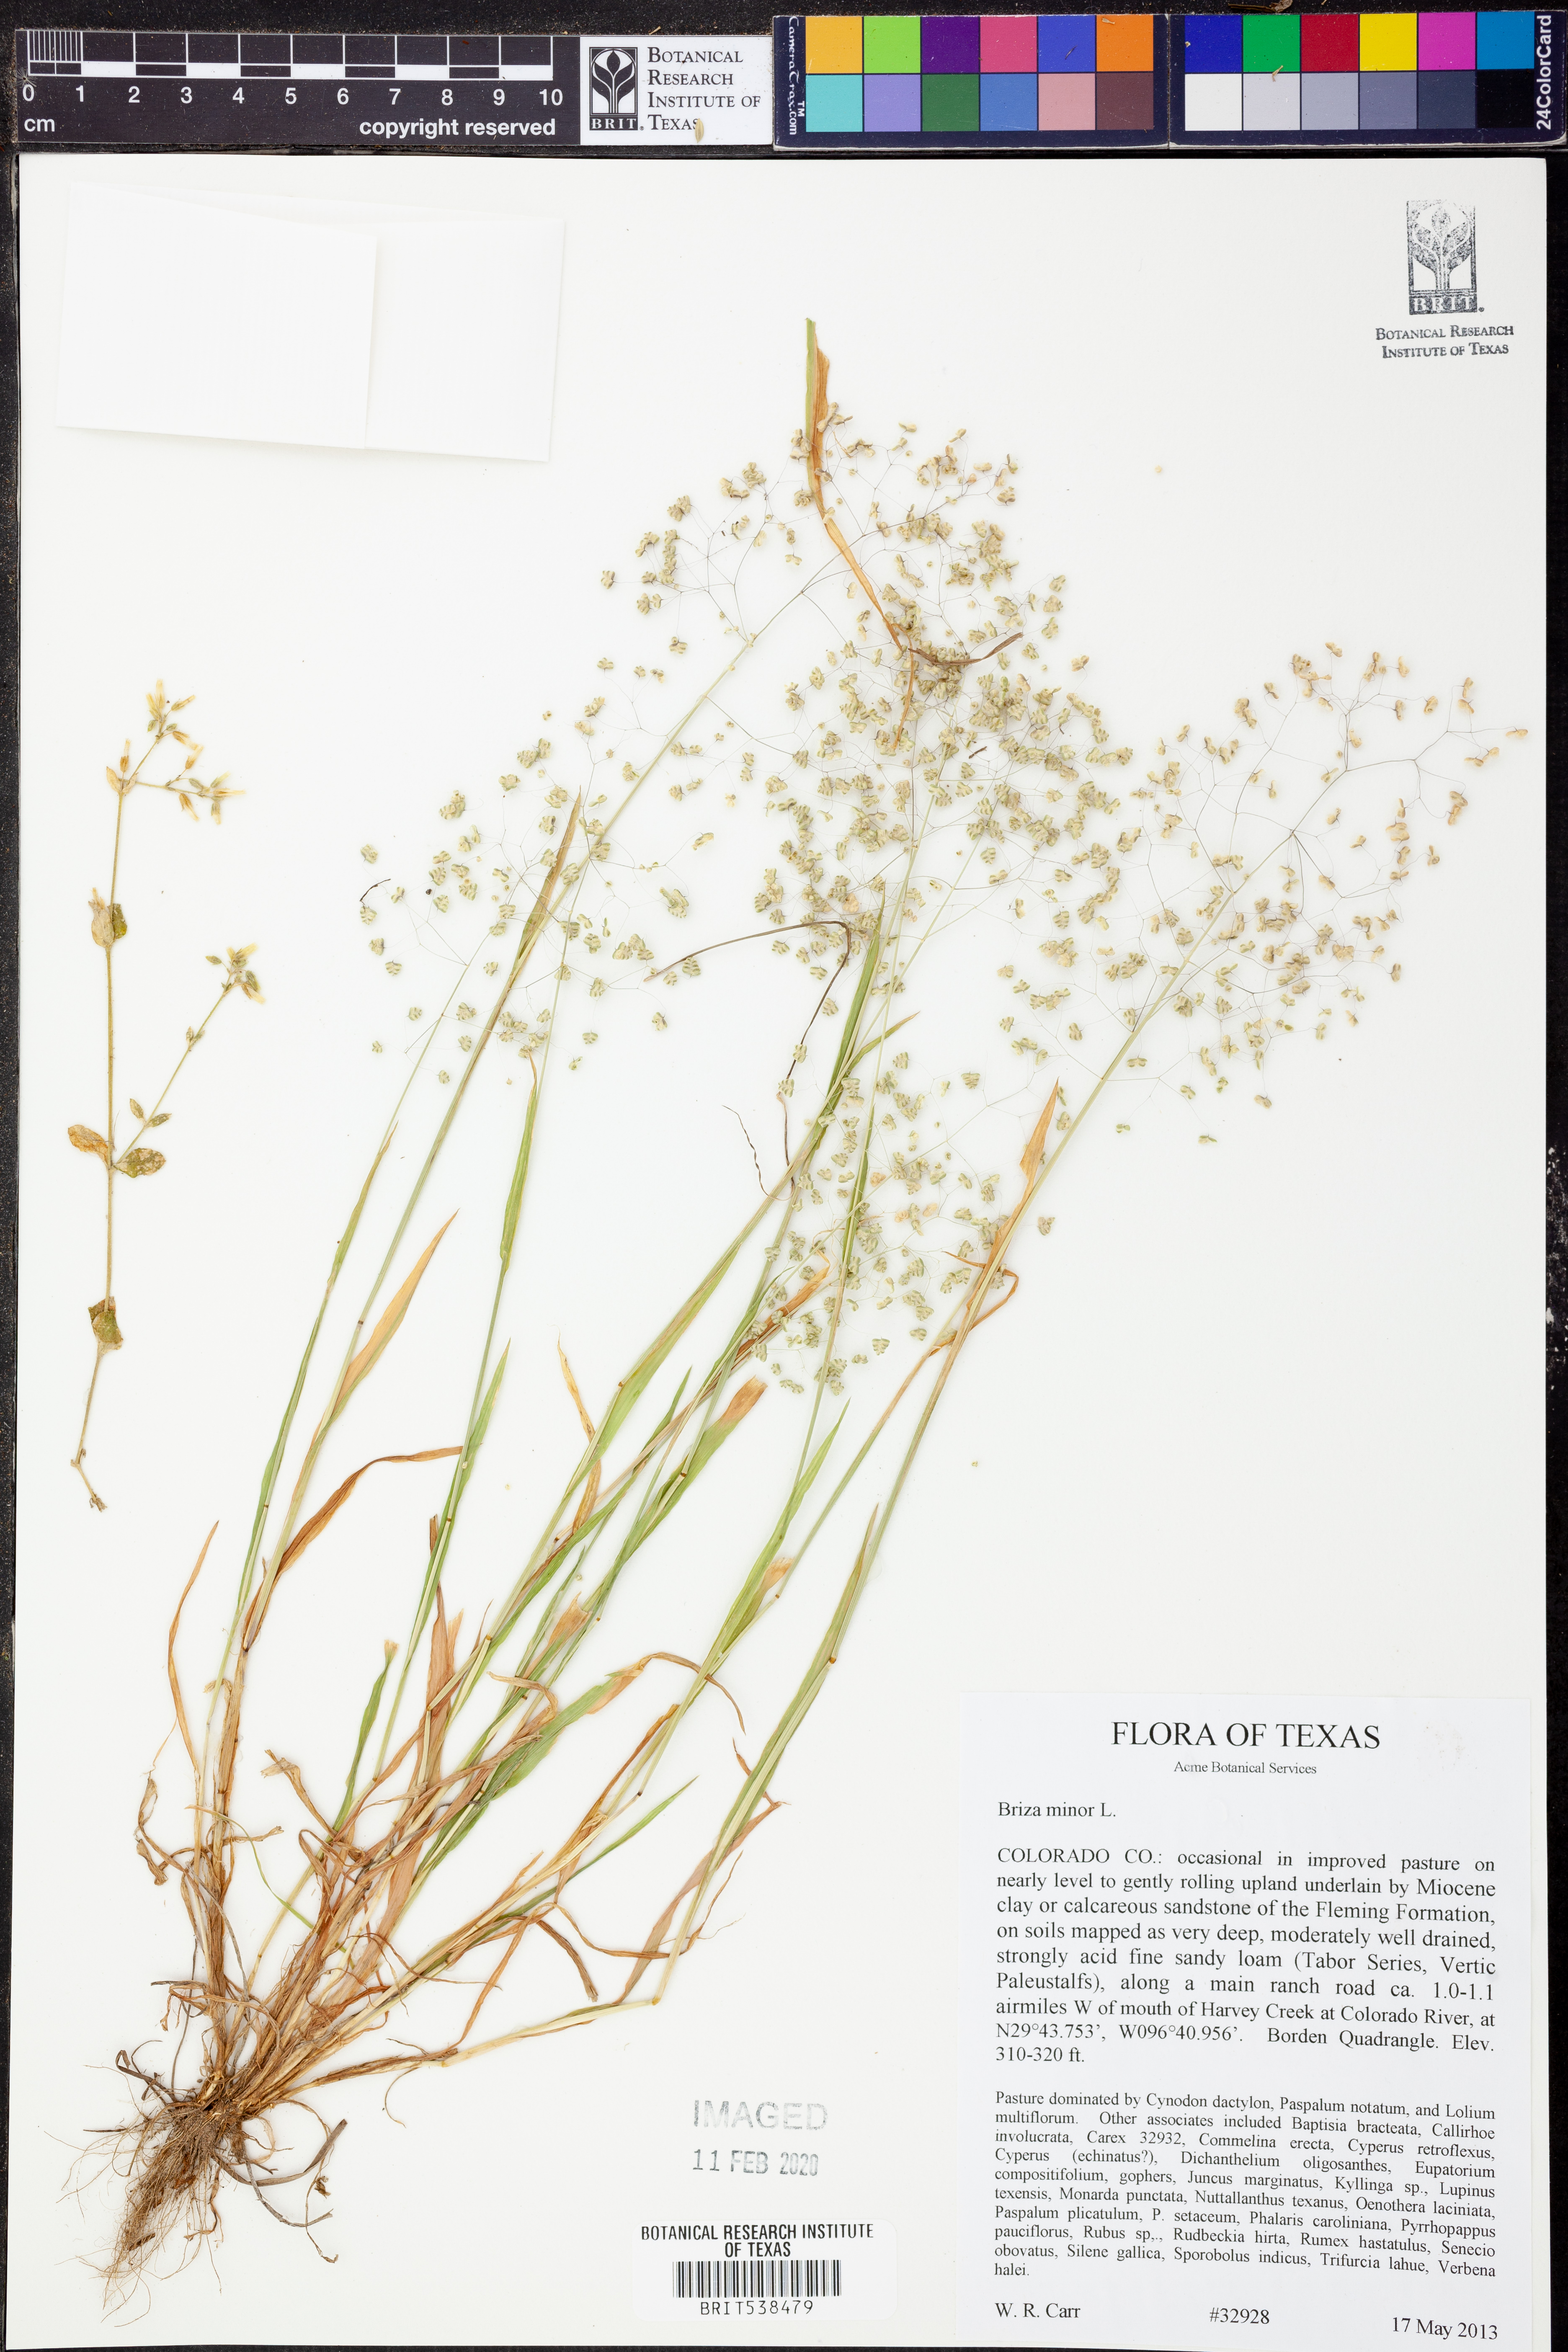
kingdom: Plantae
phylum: Tracheophyta
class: Liliopsida
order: Poales
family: Poaceae
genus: Briza
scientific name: Briza minor
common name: Lesser quaking-grass
